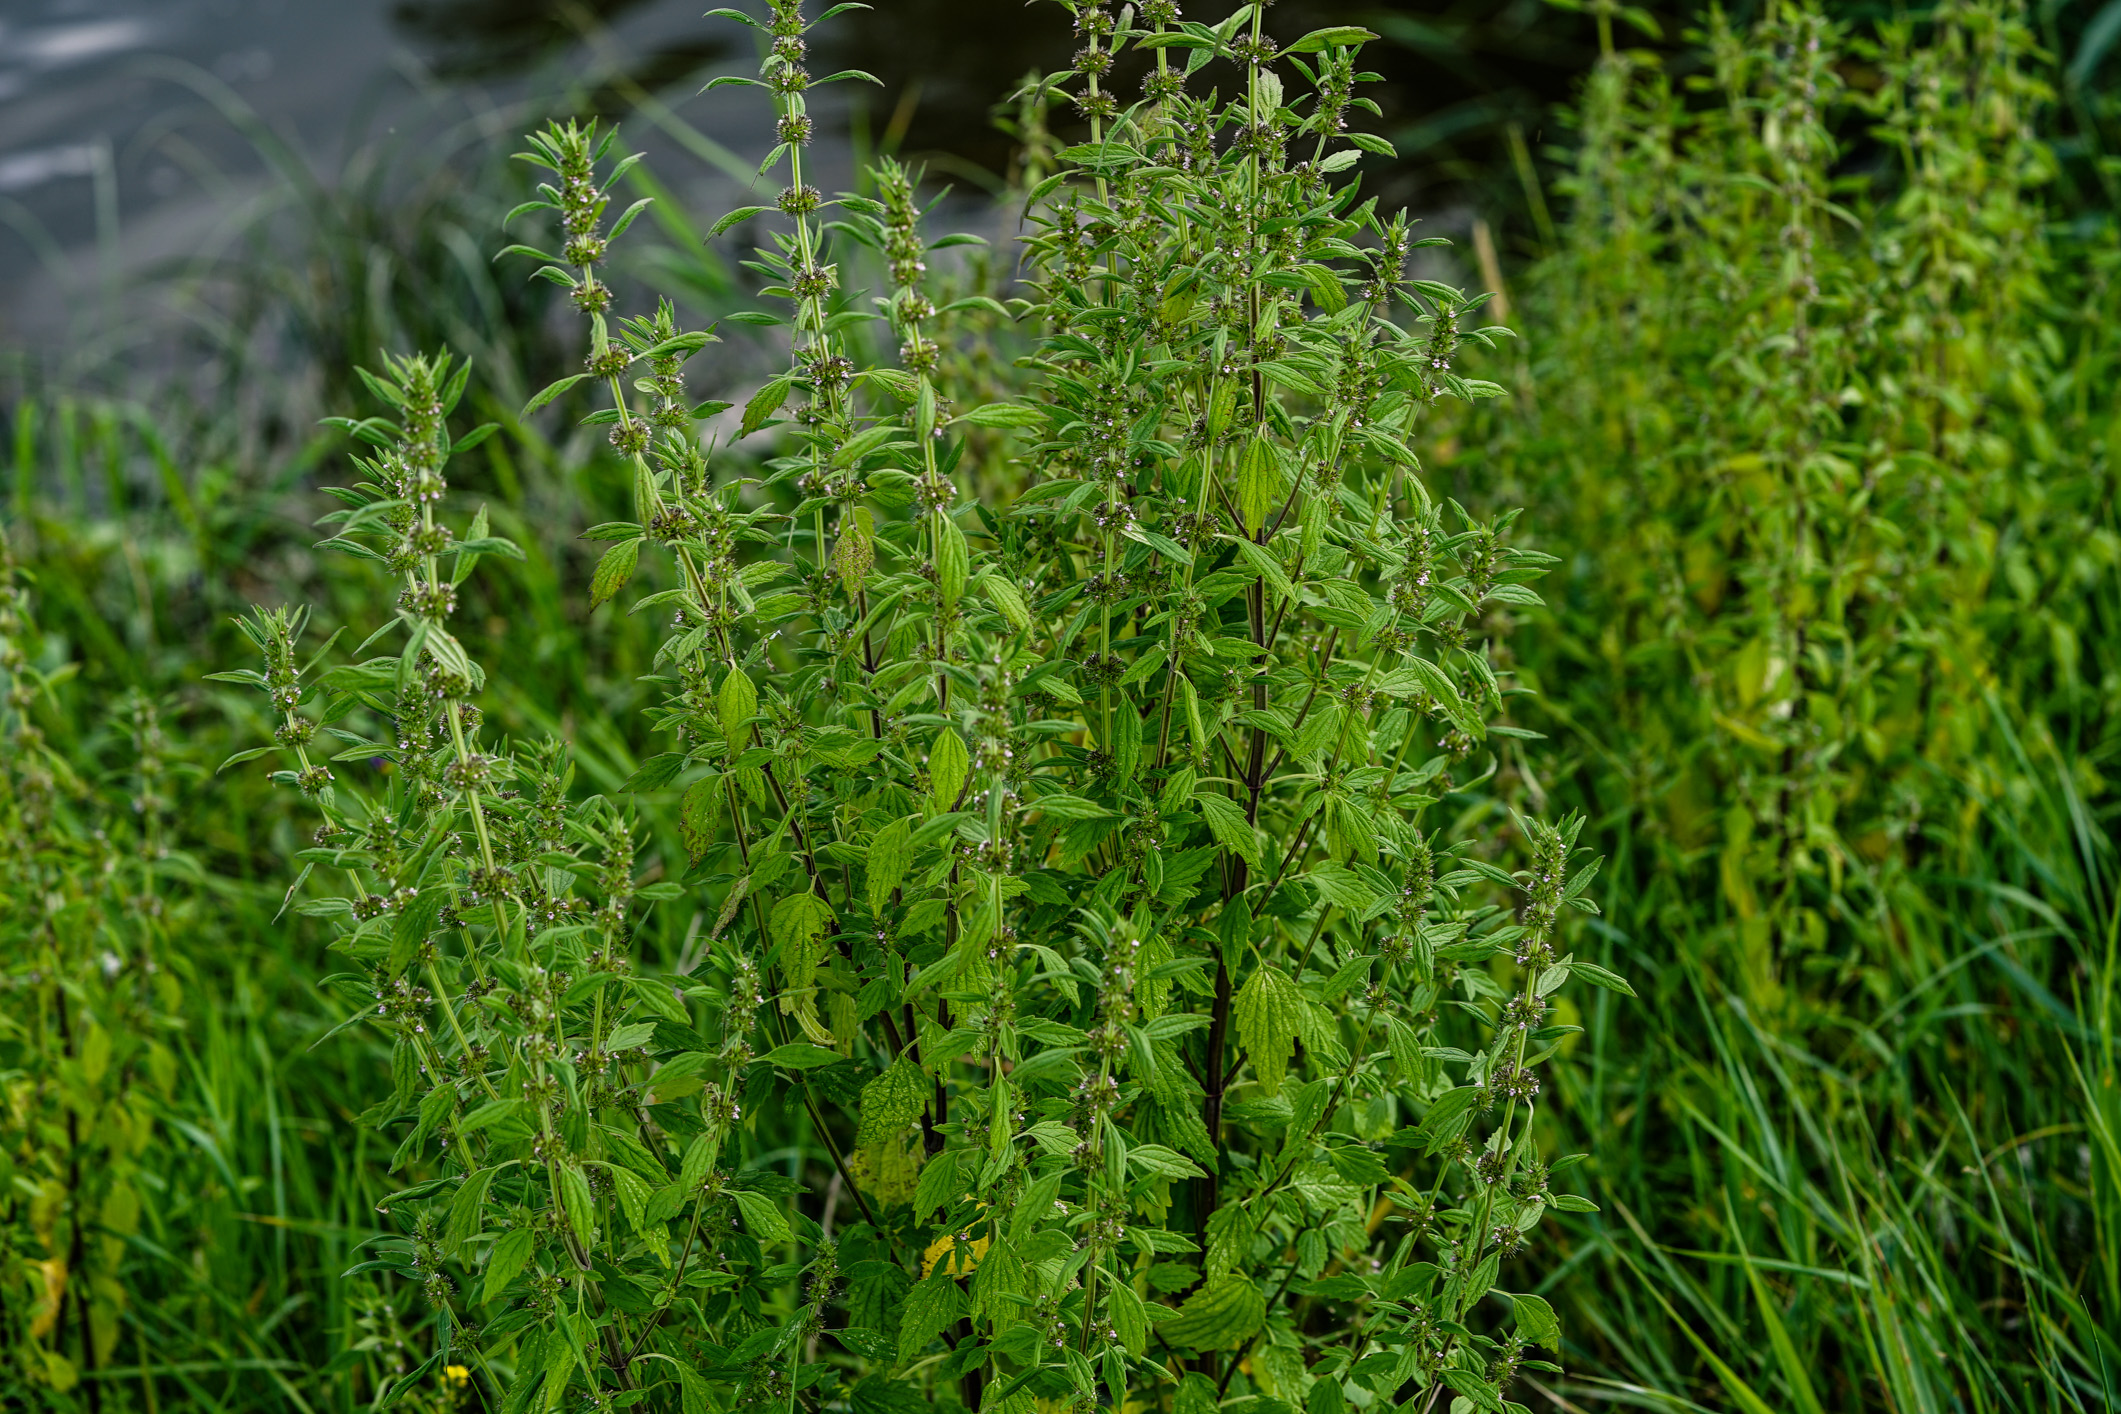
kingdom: Plantae
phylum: Tracheophyta
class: Magnoliopsida
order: Lamiales
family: Lamiaceae
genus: Chaiturus
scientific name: Chaiturus marrubiastrum
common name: Lion's tail
